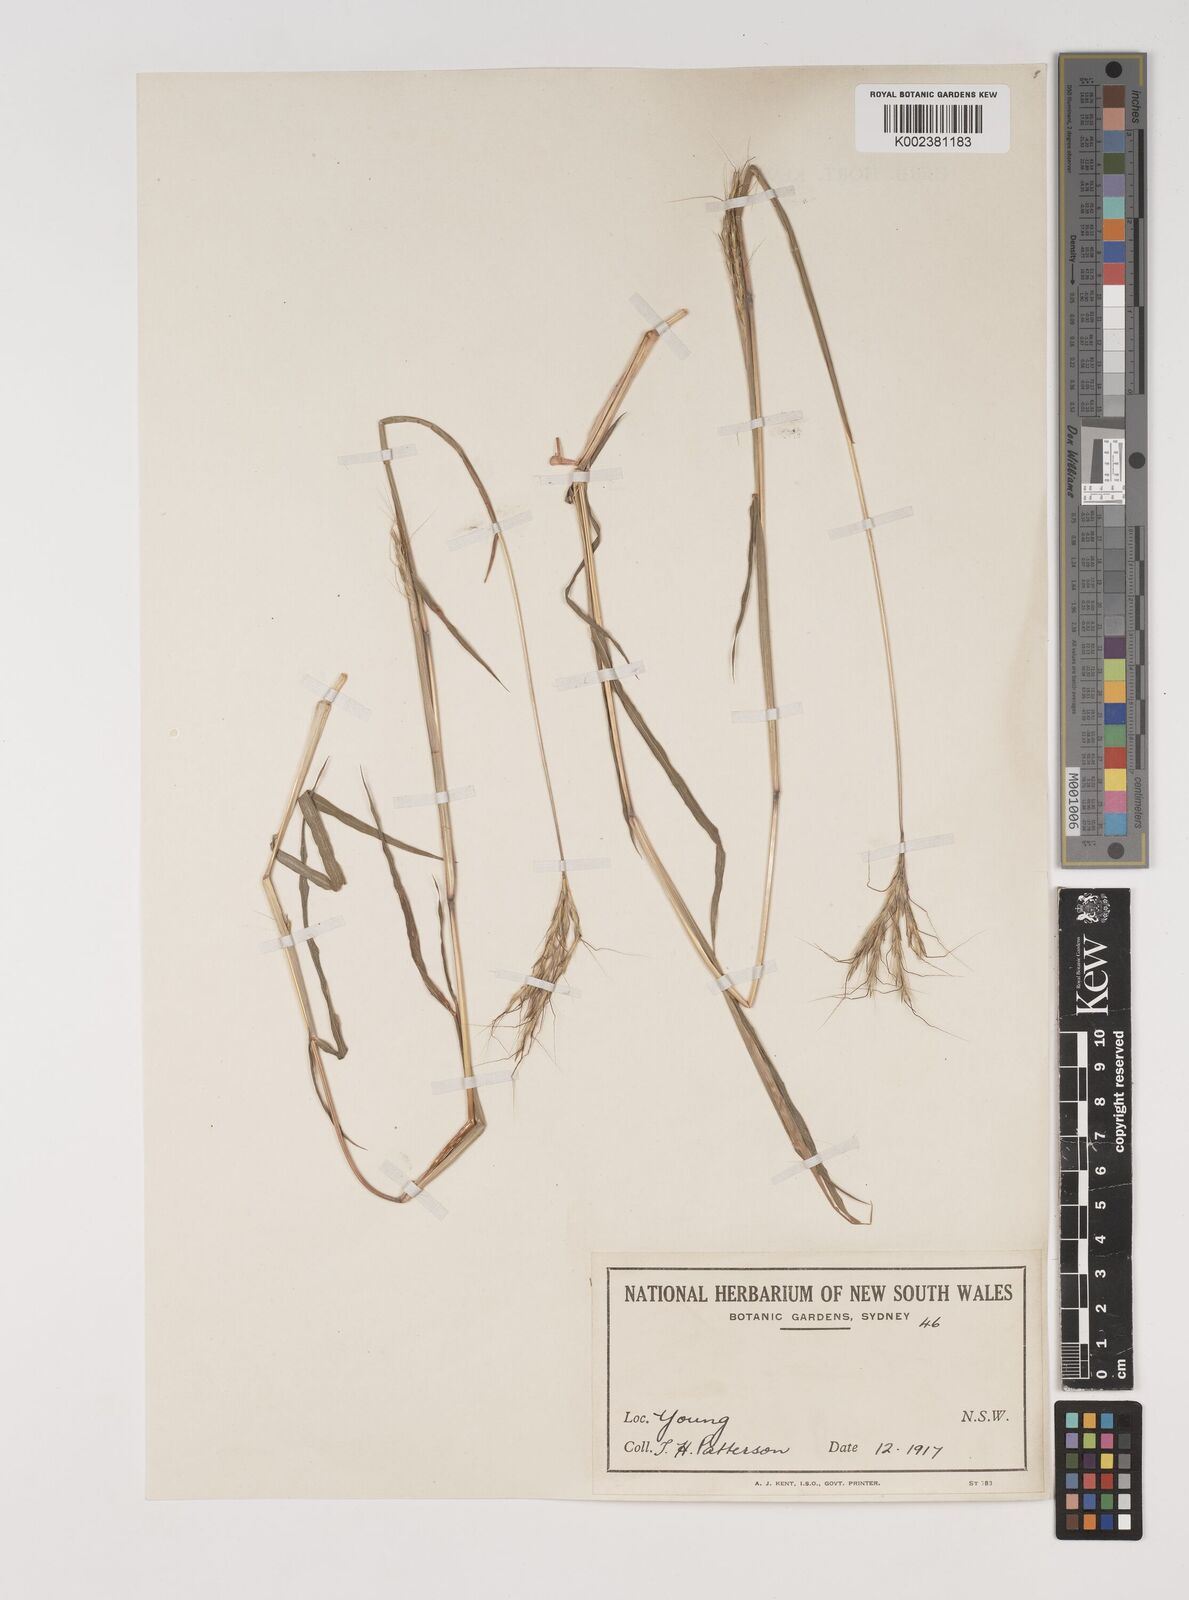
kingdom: Plantae
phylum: Tracheophyta
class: Liliopsida
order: Poales
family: Poaceae
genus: Bothriochloa
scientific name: Bothriochloa macra
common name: Pitted beard grass
